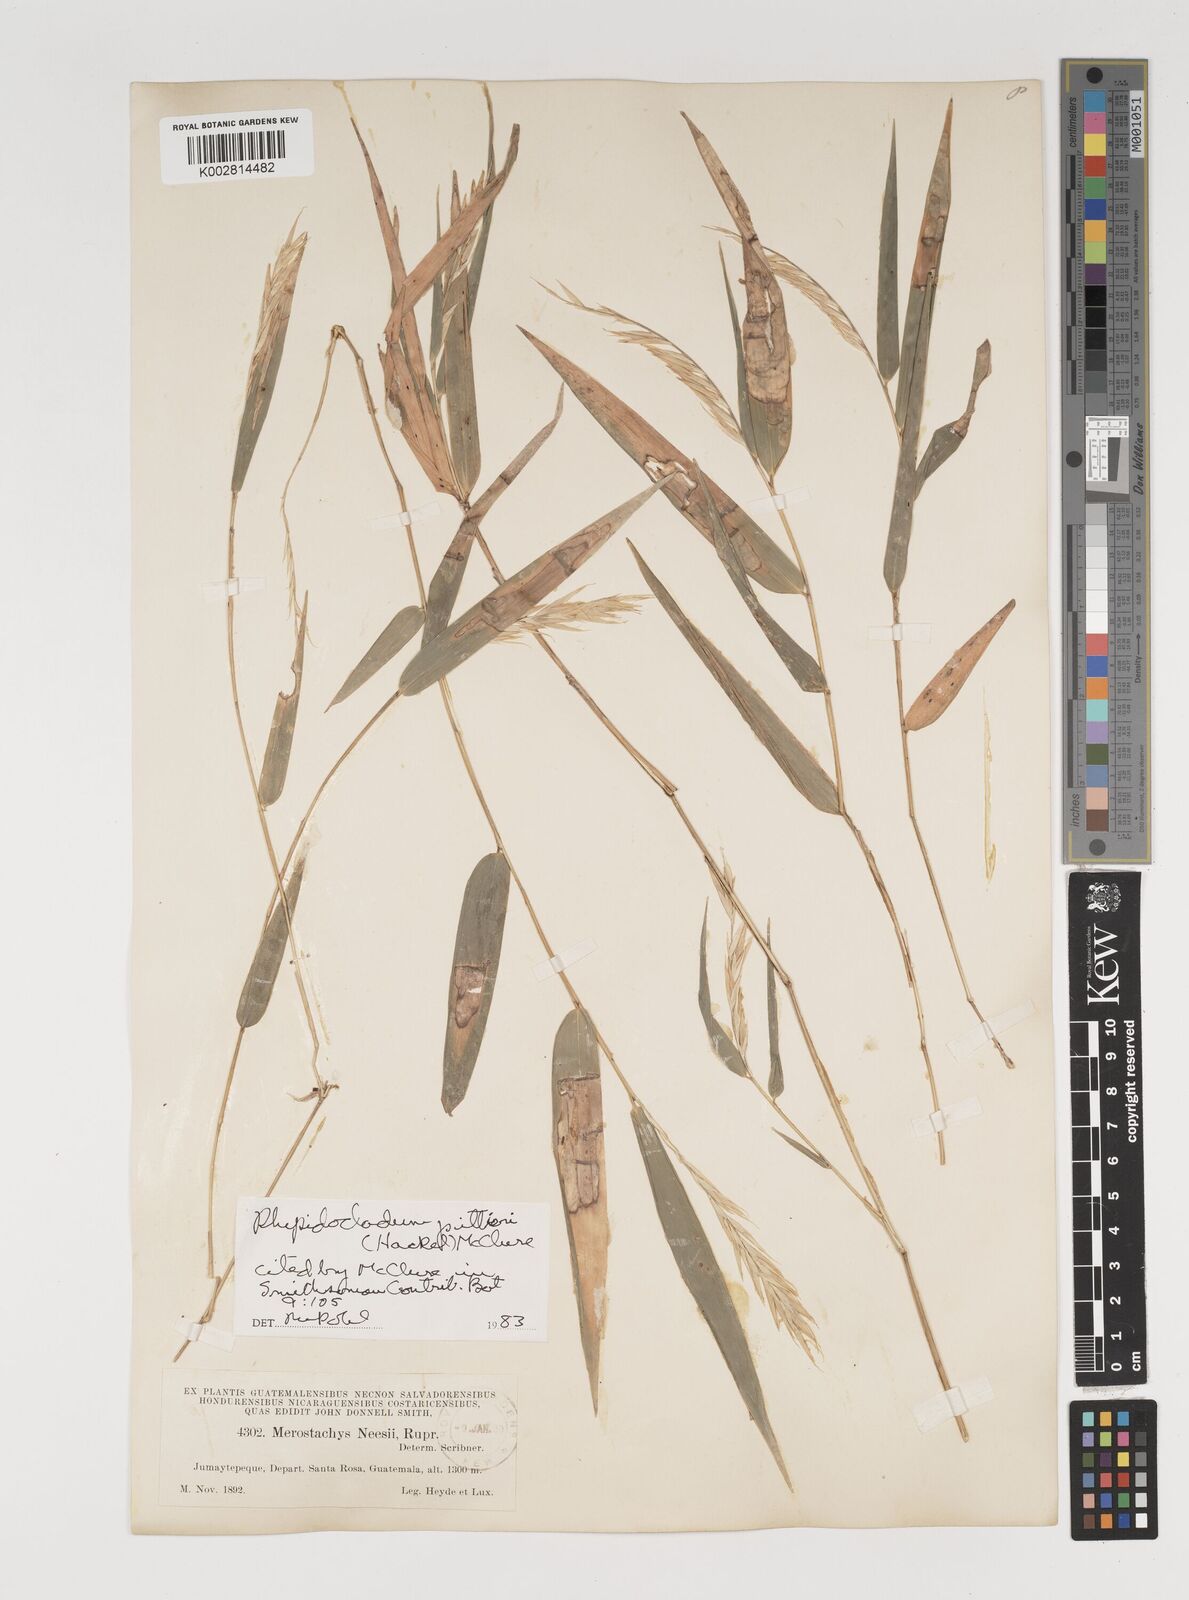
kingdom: Plantae
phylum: Tracheophyta
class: Liliopsida
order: Poales
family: Poaceae
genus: Rhipidocladum
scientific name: Rhipidocladum pittieri
